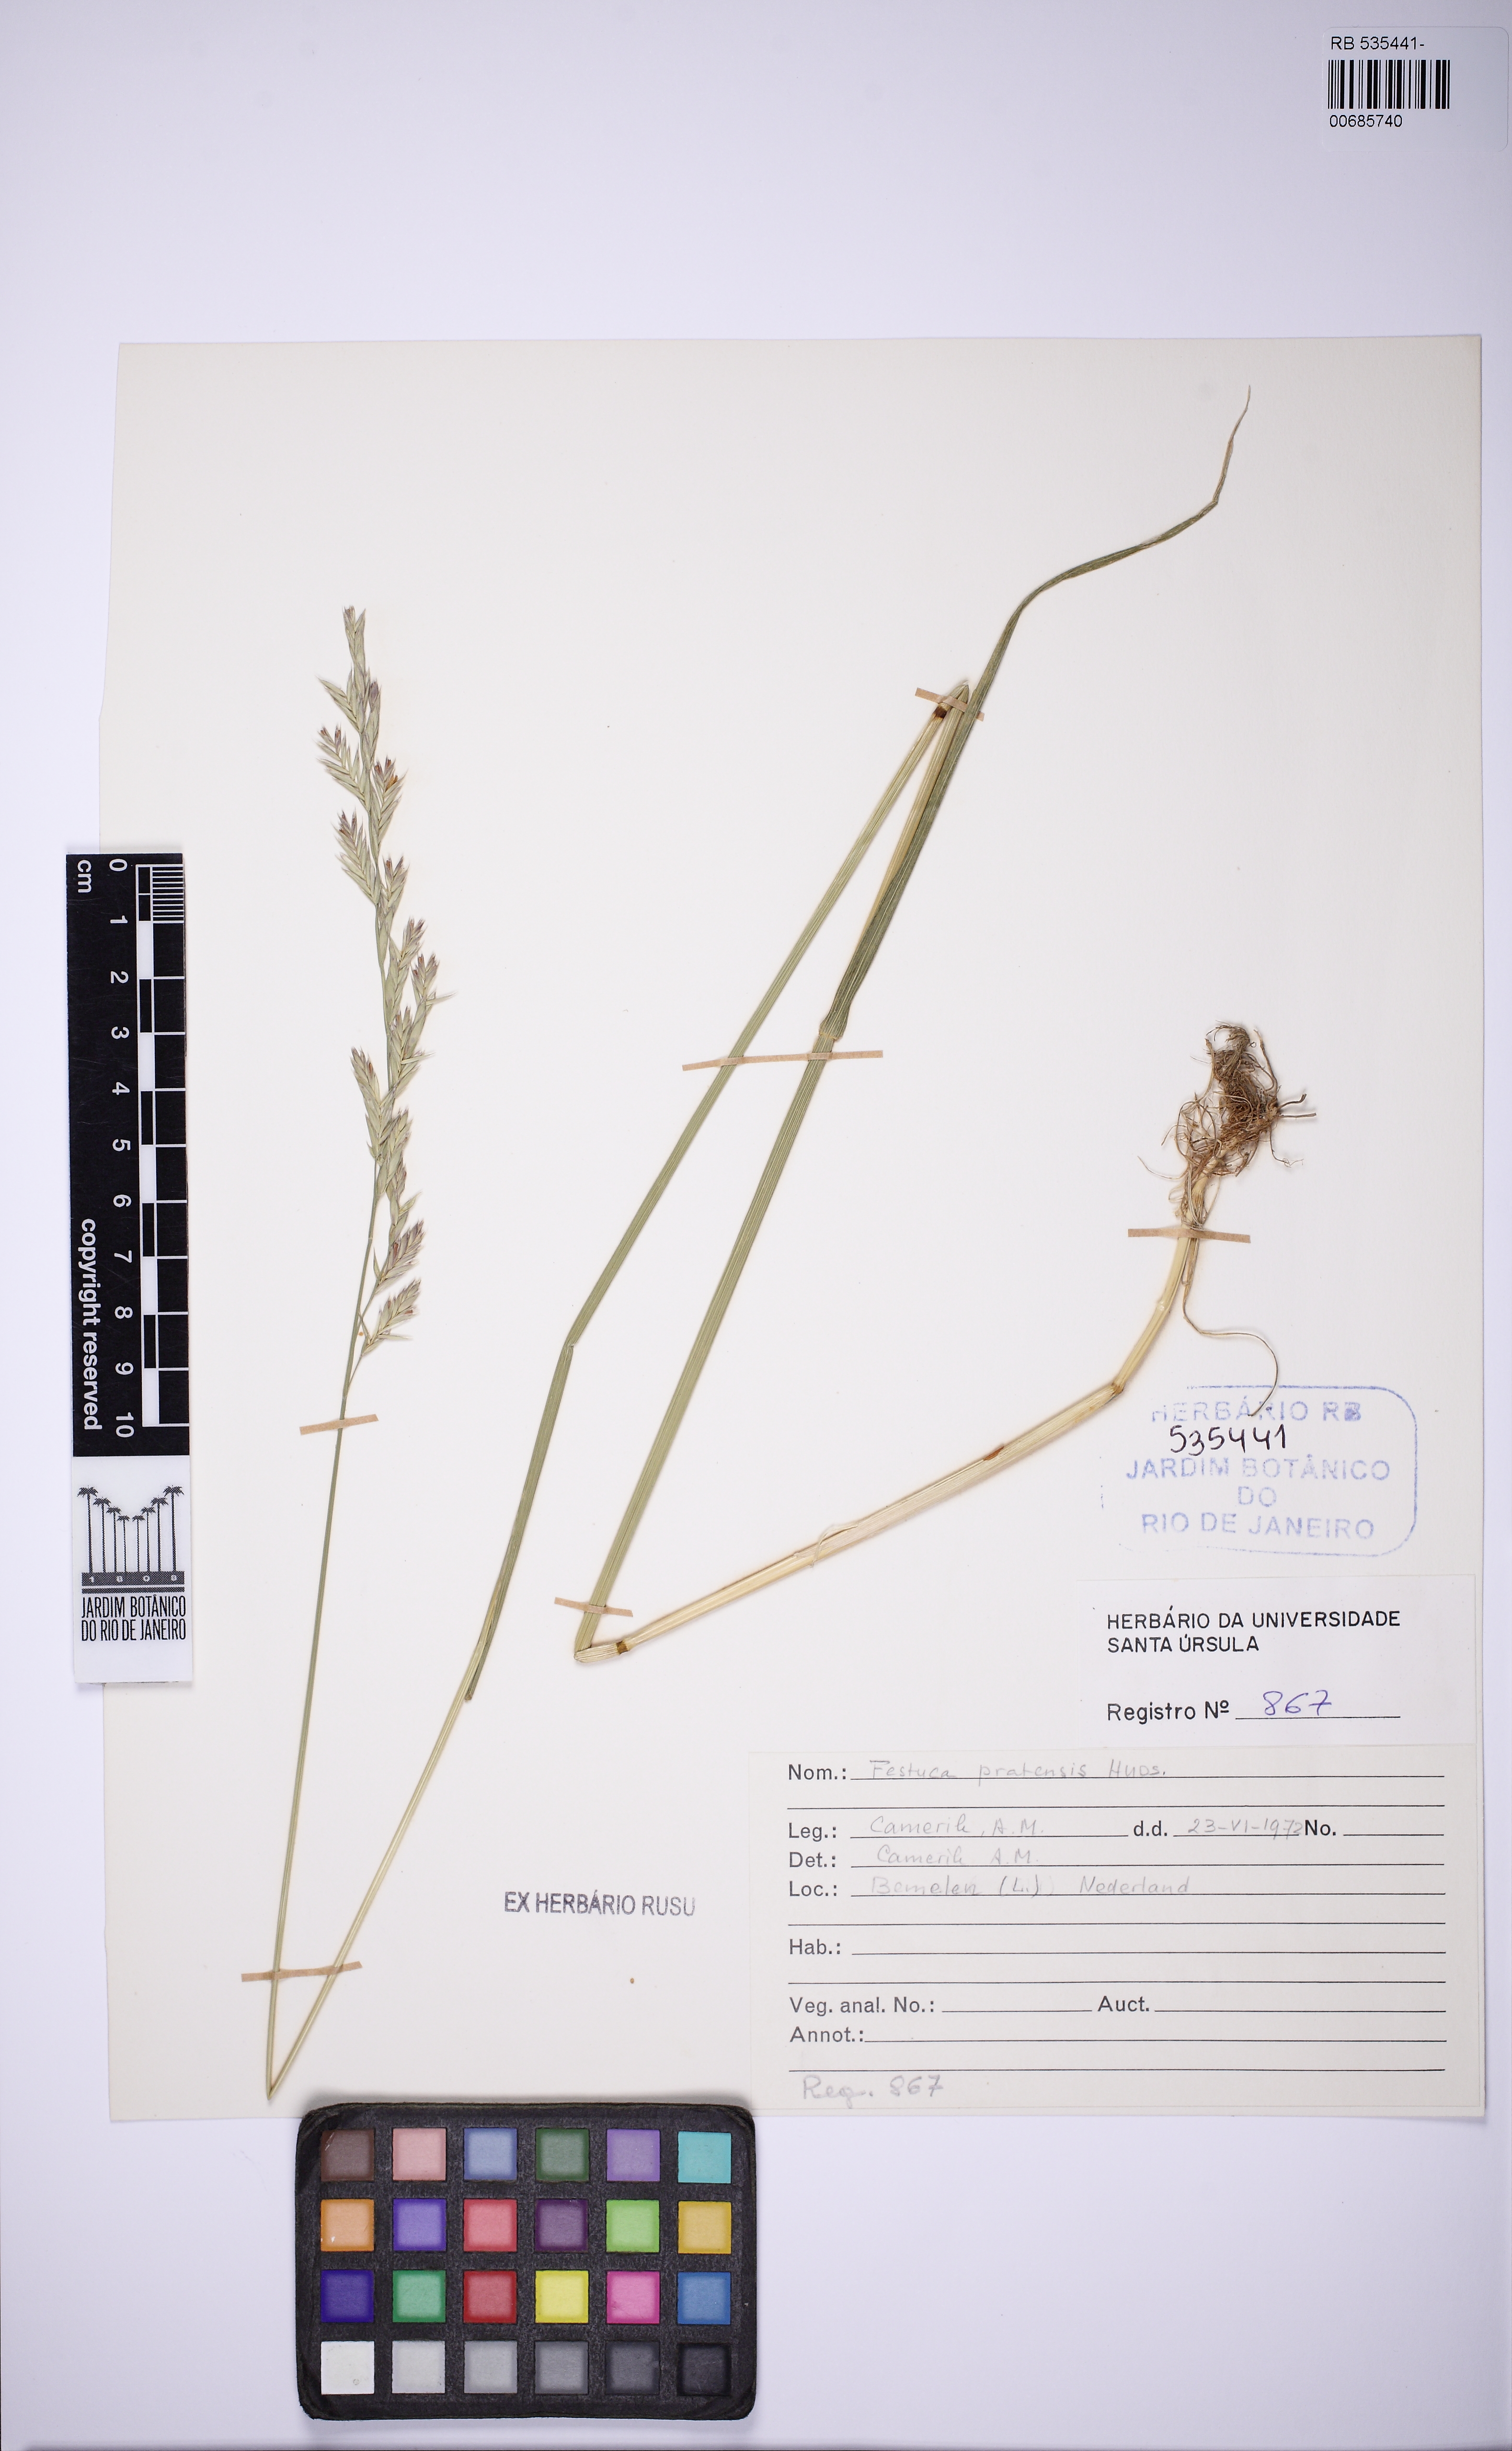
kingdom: Plantae
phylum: Tracheophyta
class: Liliopsida
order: Poales
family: Poaceae
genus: Lolium
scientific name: Lolium pratense
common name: Dover grass
